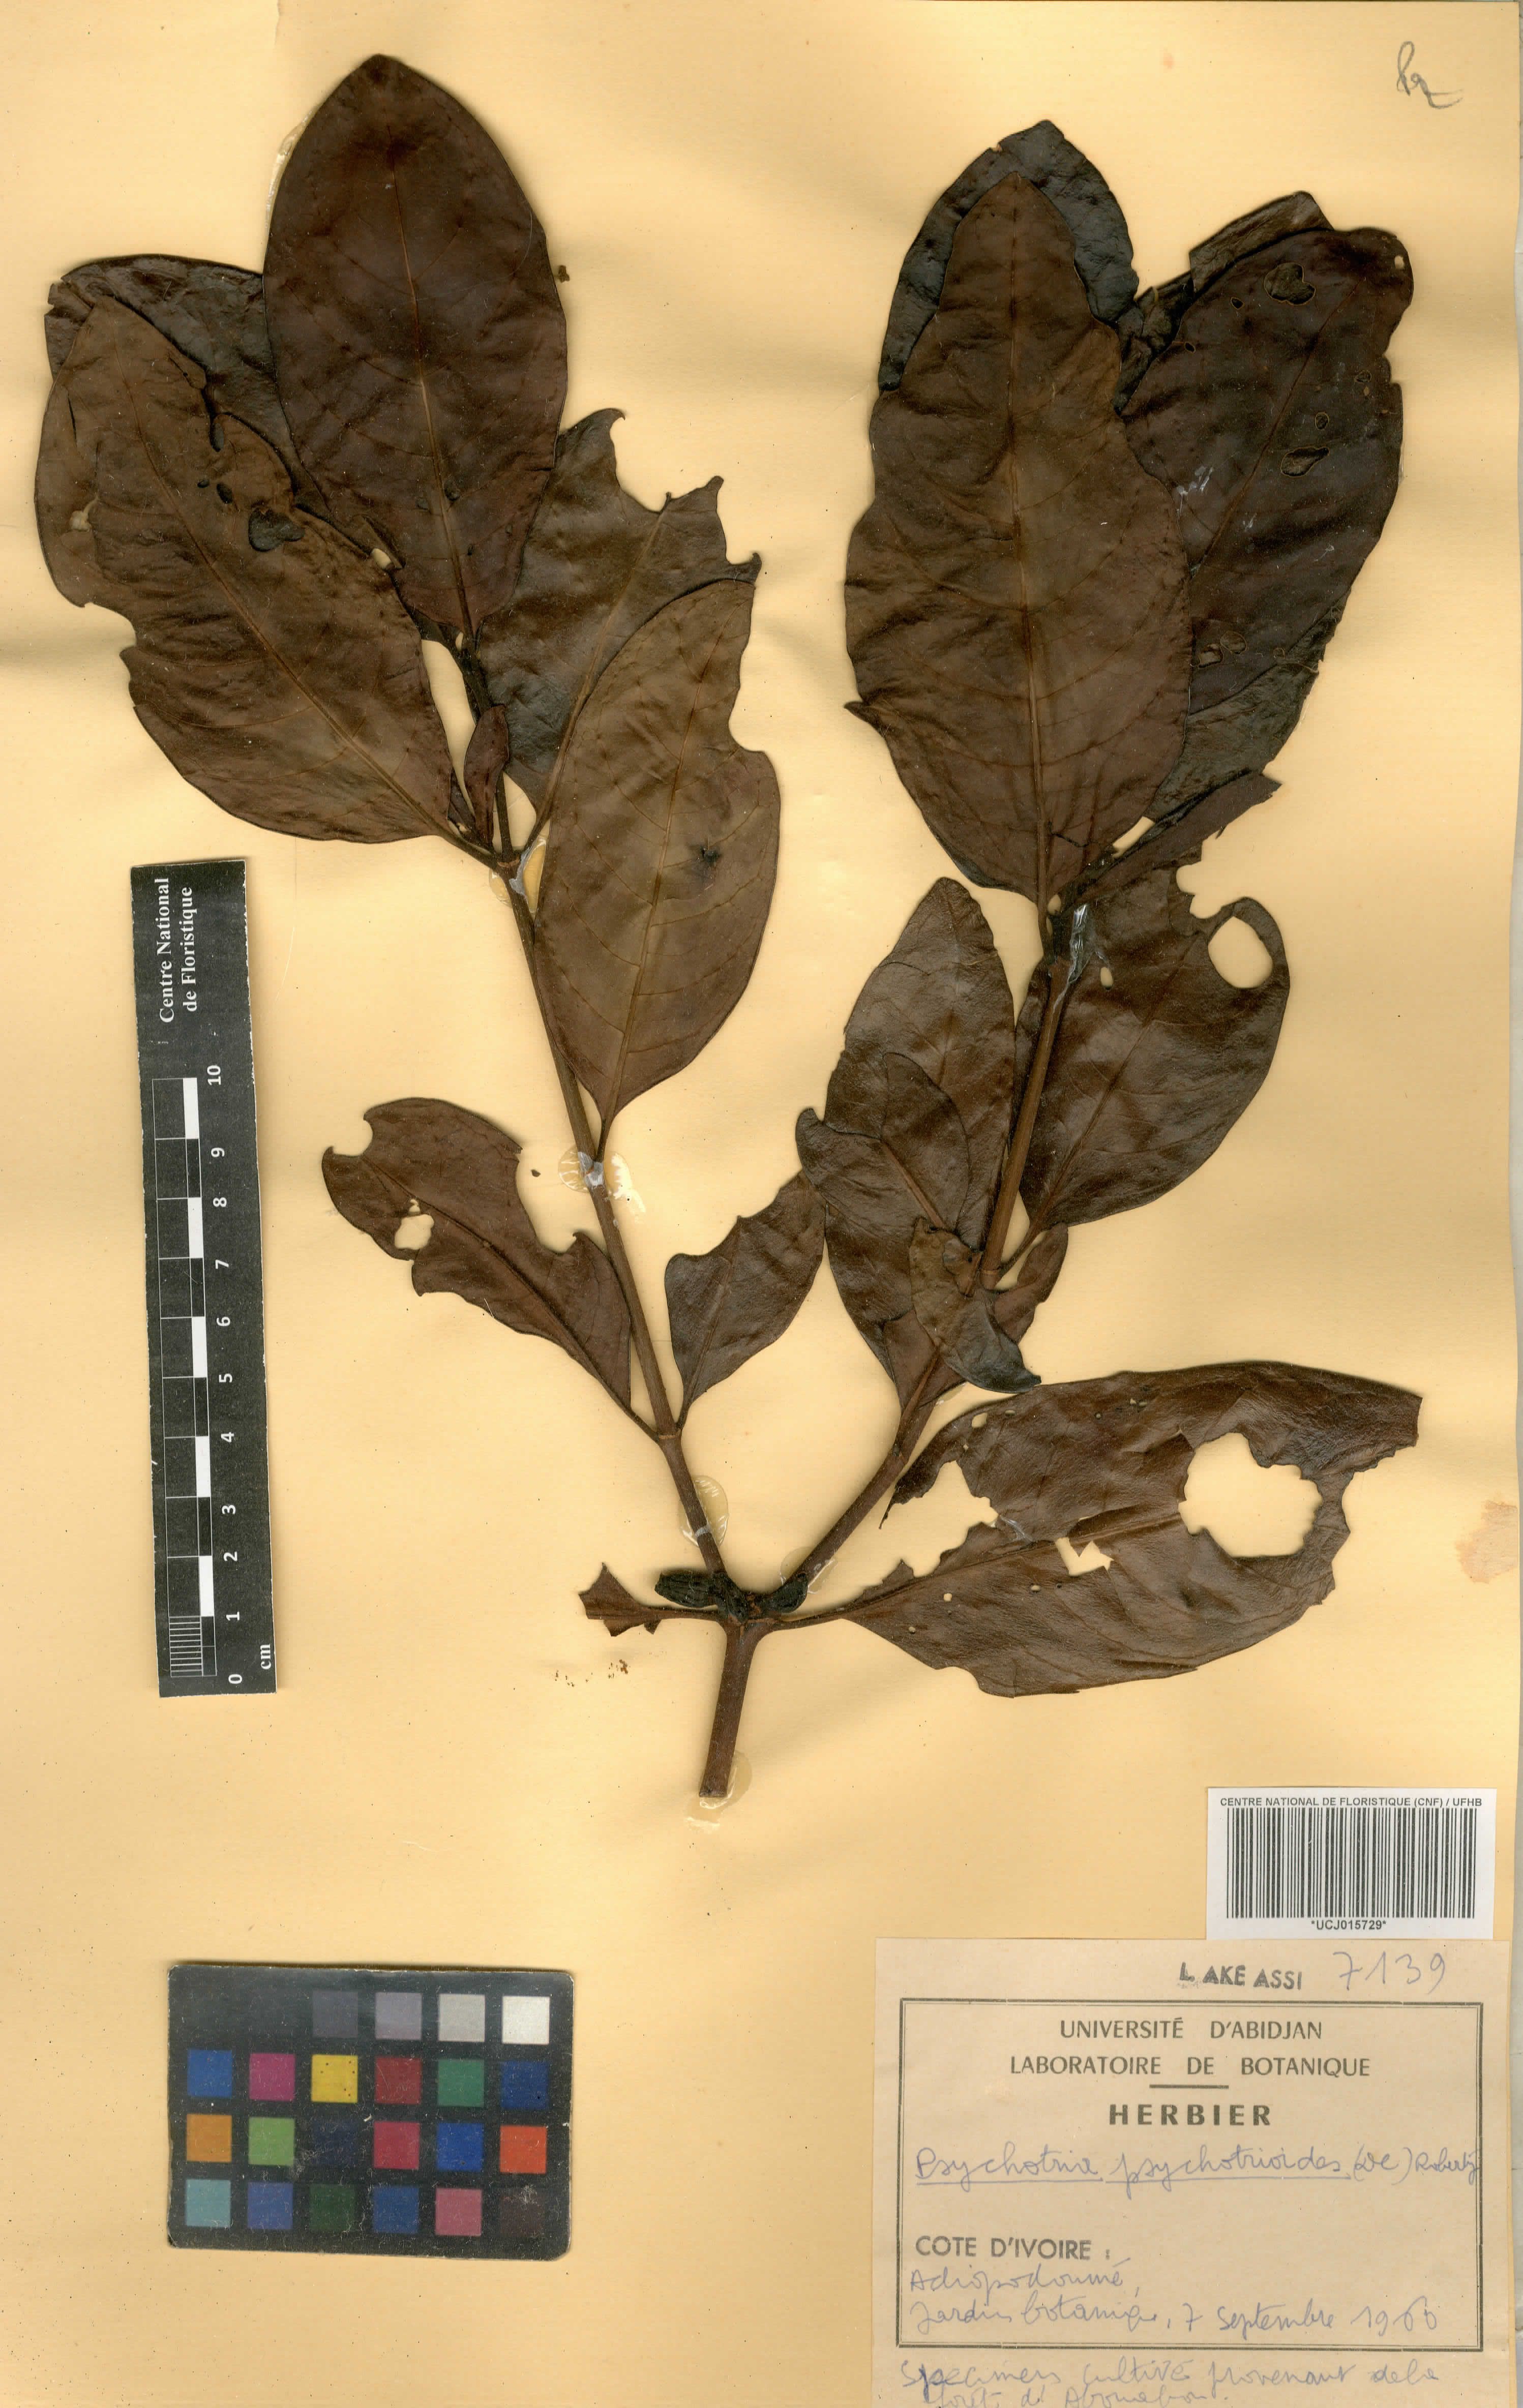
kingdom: Plantae
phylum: Tracheophyta
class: Magnoliopsida
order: Gentianales
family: Rubiaceae
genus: Psychotria
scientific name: Psychotria psychotrioides
